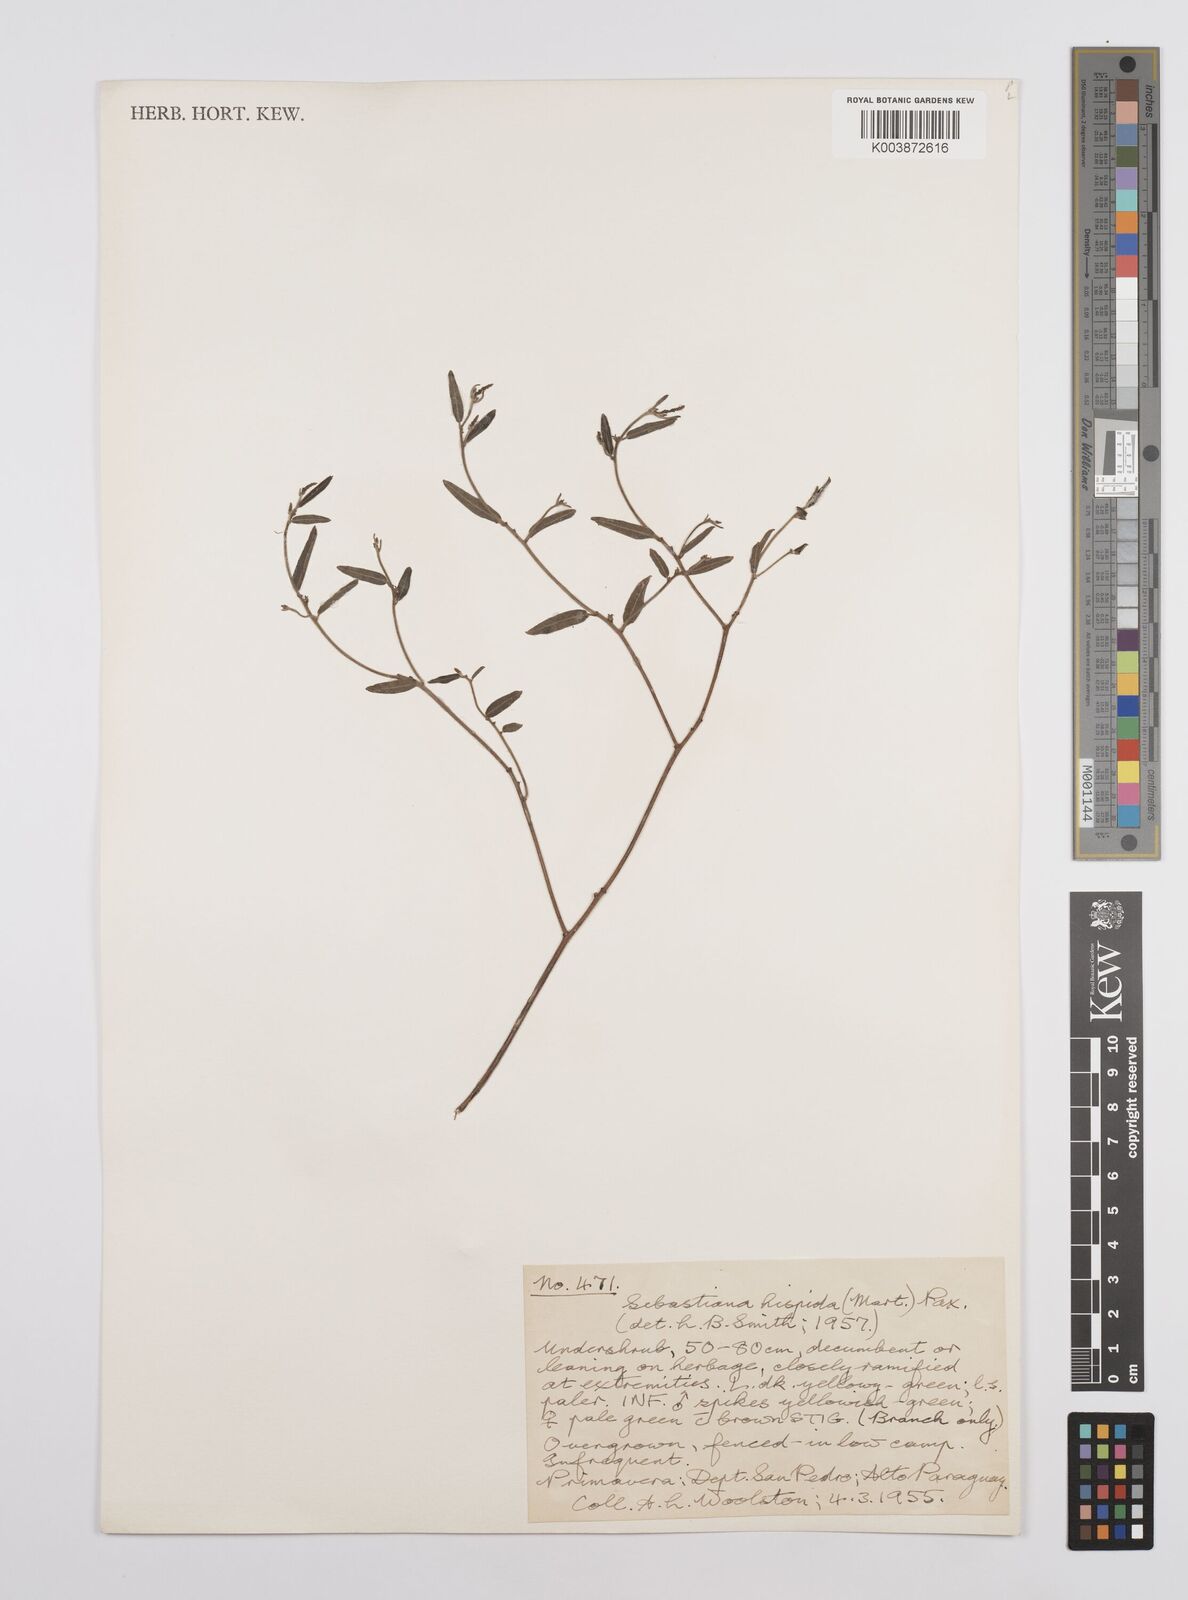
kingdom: Plantae
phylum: Tracheophyta
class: Magnoliopsida
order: Malpighiales
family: Euphorbiaceae
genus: Microstachys
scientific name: Microstachys hispida
